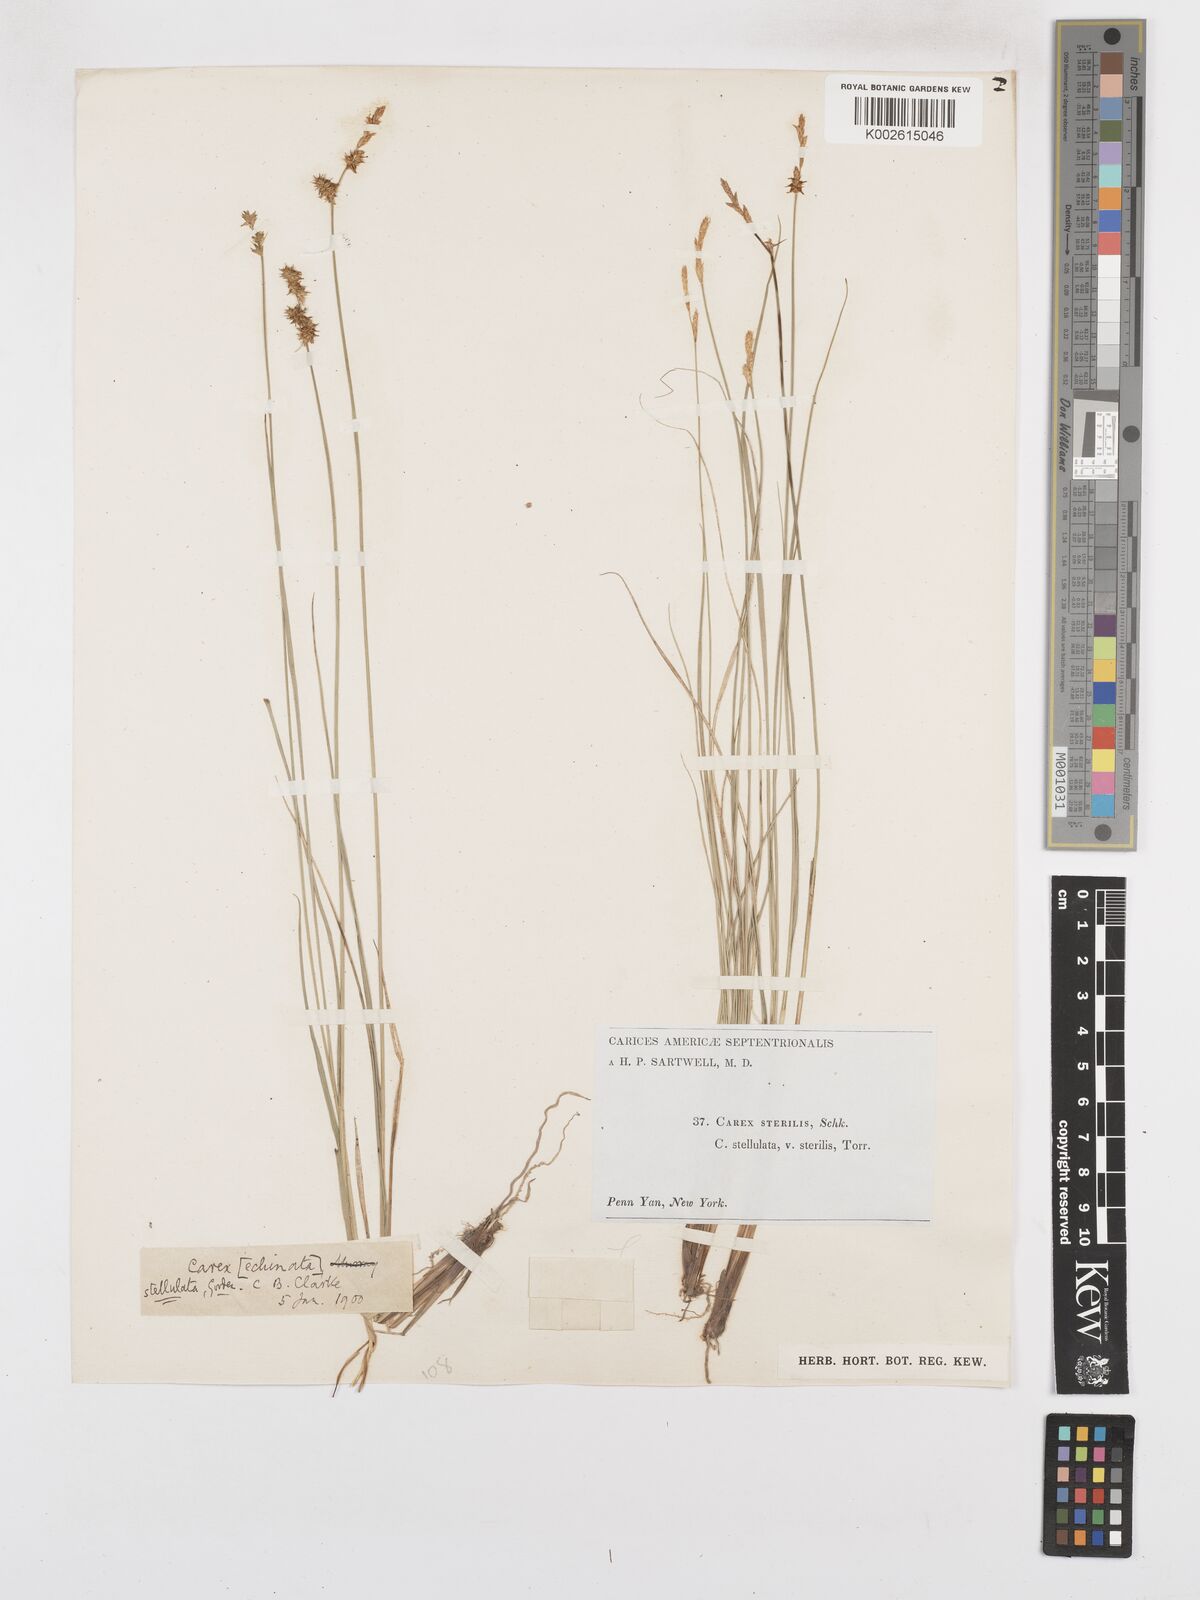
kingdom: Plantae
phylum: Tracheophyta
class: Liliopsida
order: Poales
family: Cyperaceae
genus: Carex
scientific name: Carex atlantica
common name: Atlantic sedge
